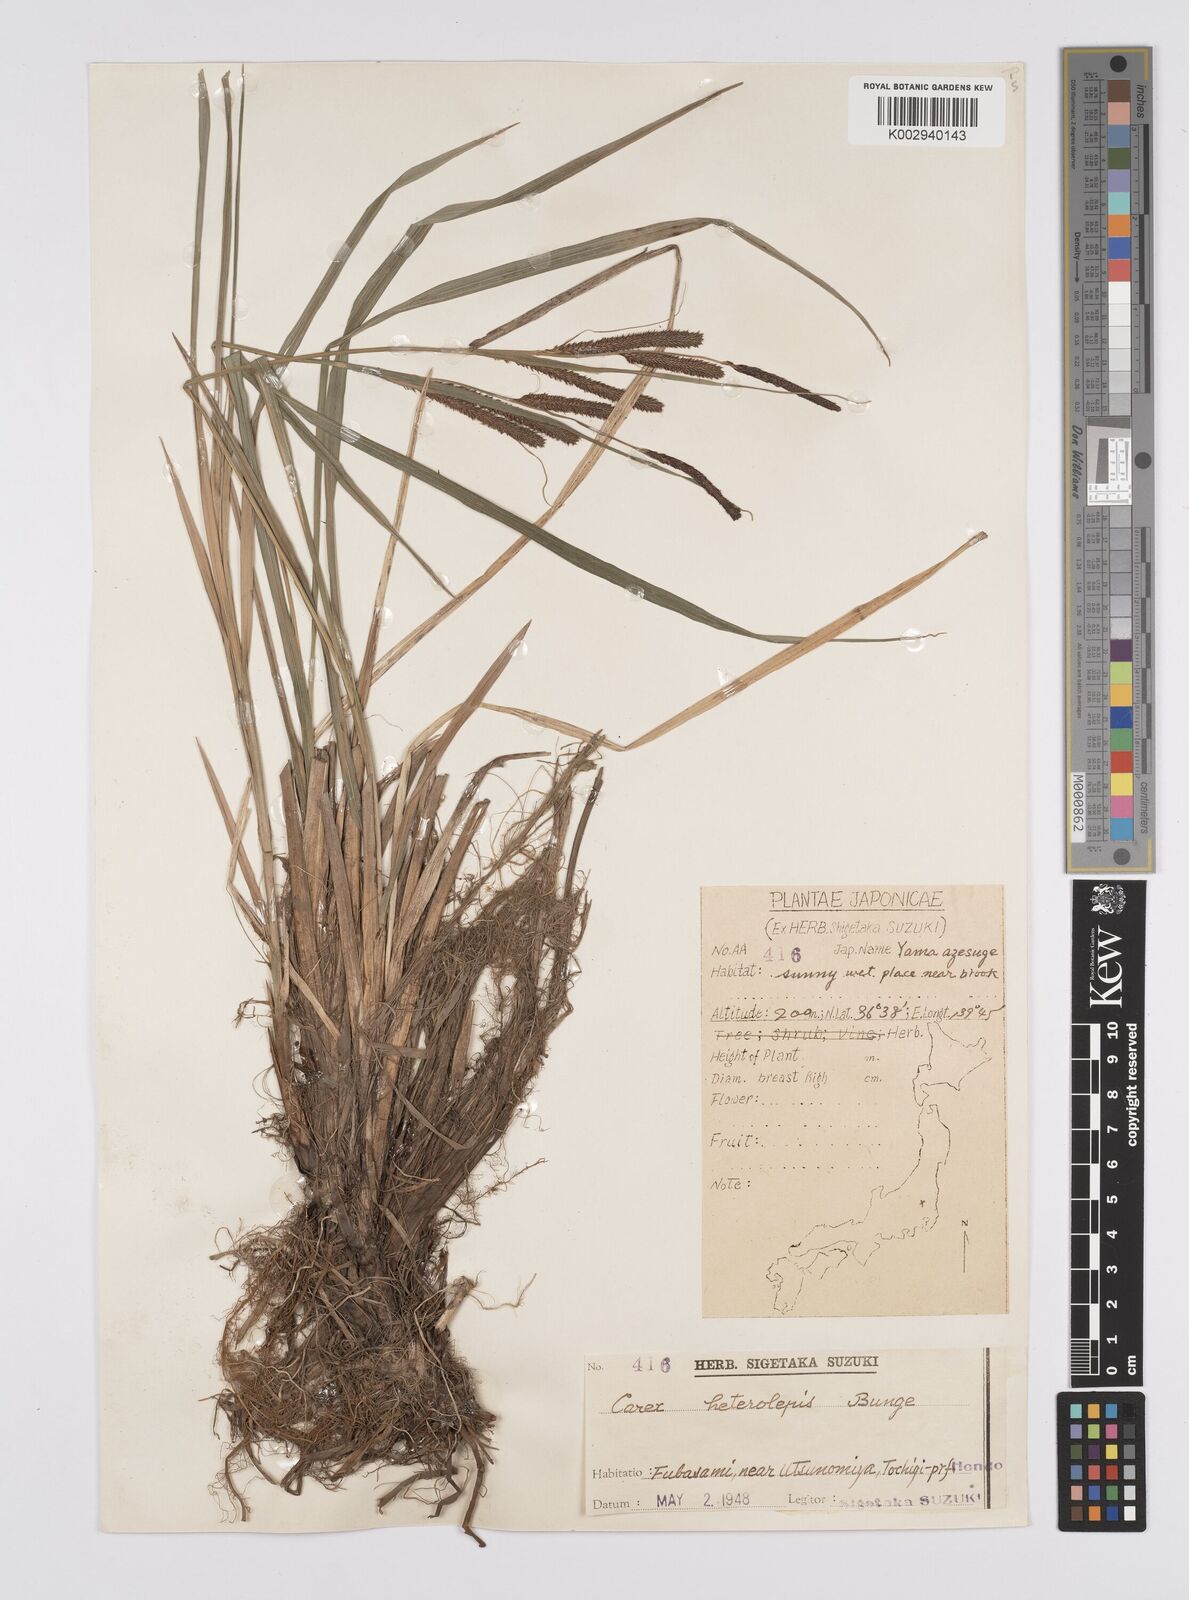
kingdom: Plantae
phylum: Tracheophyta
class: Liliopsida
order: Poales
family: Cyperaceae
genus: Carex
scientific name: Carex cruenta
